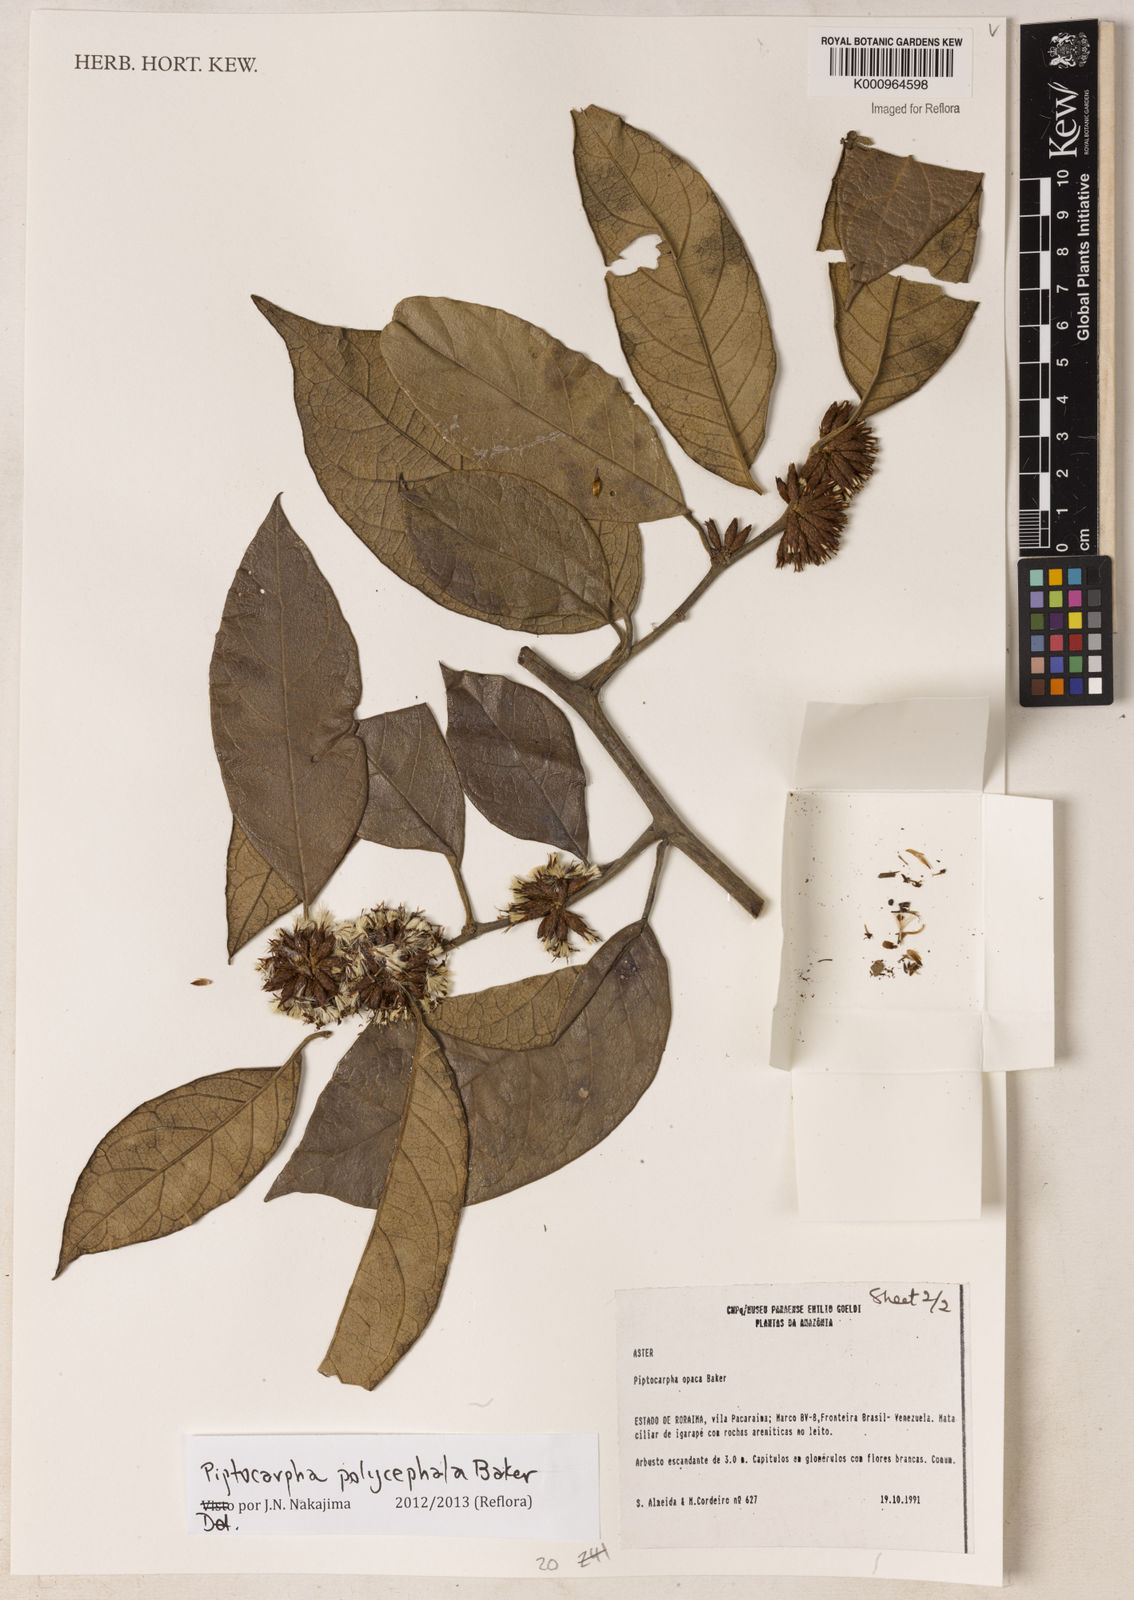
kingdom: Plantae
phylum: Tracheophyta
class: Magnoliopsida
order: Asterales
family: Asteraceae
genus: Piptocarpha
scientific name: Piptocarpha polycephala
